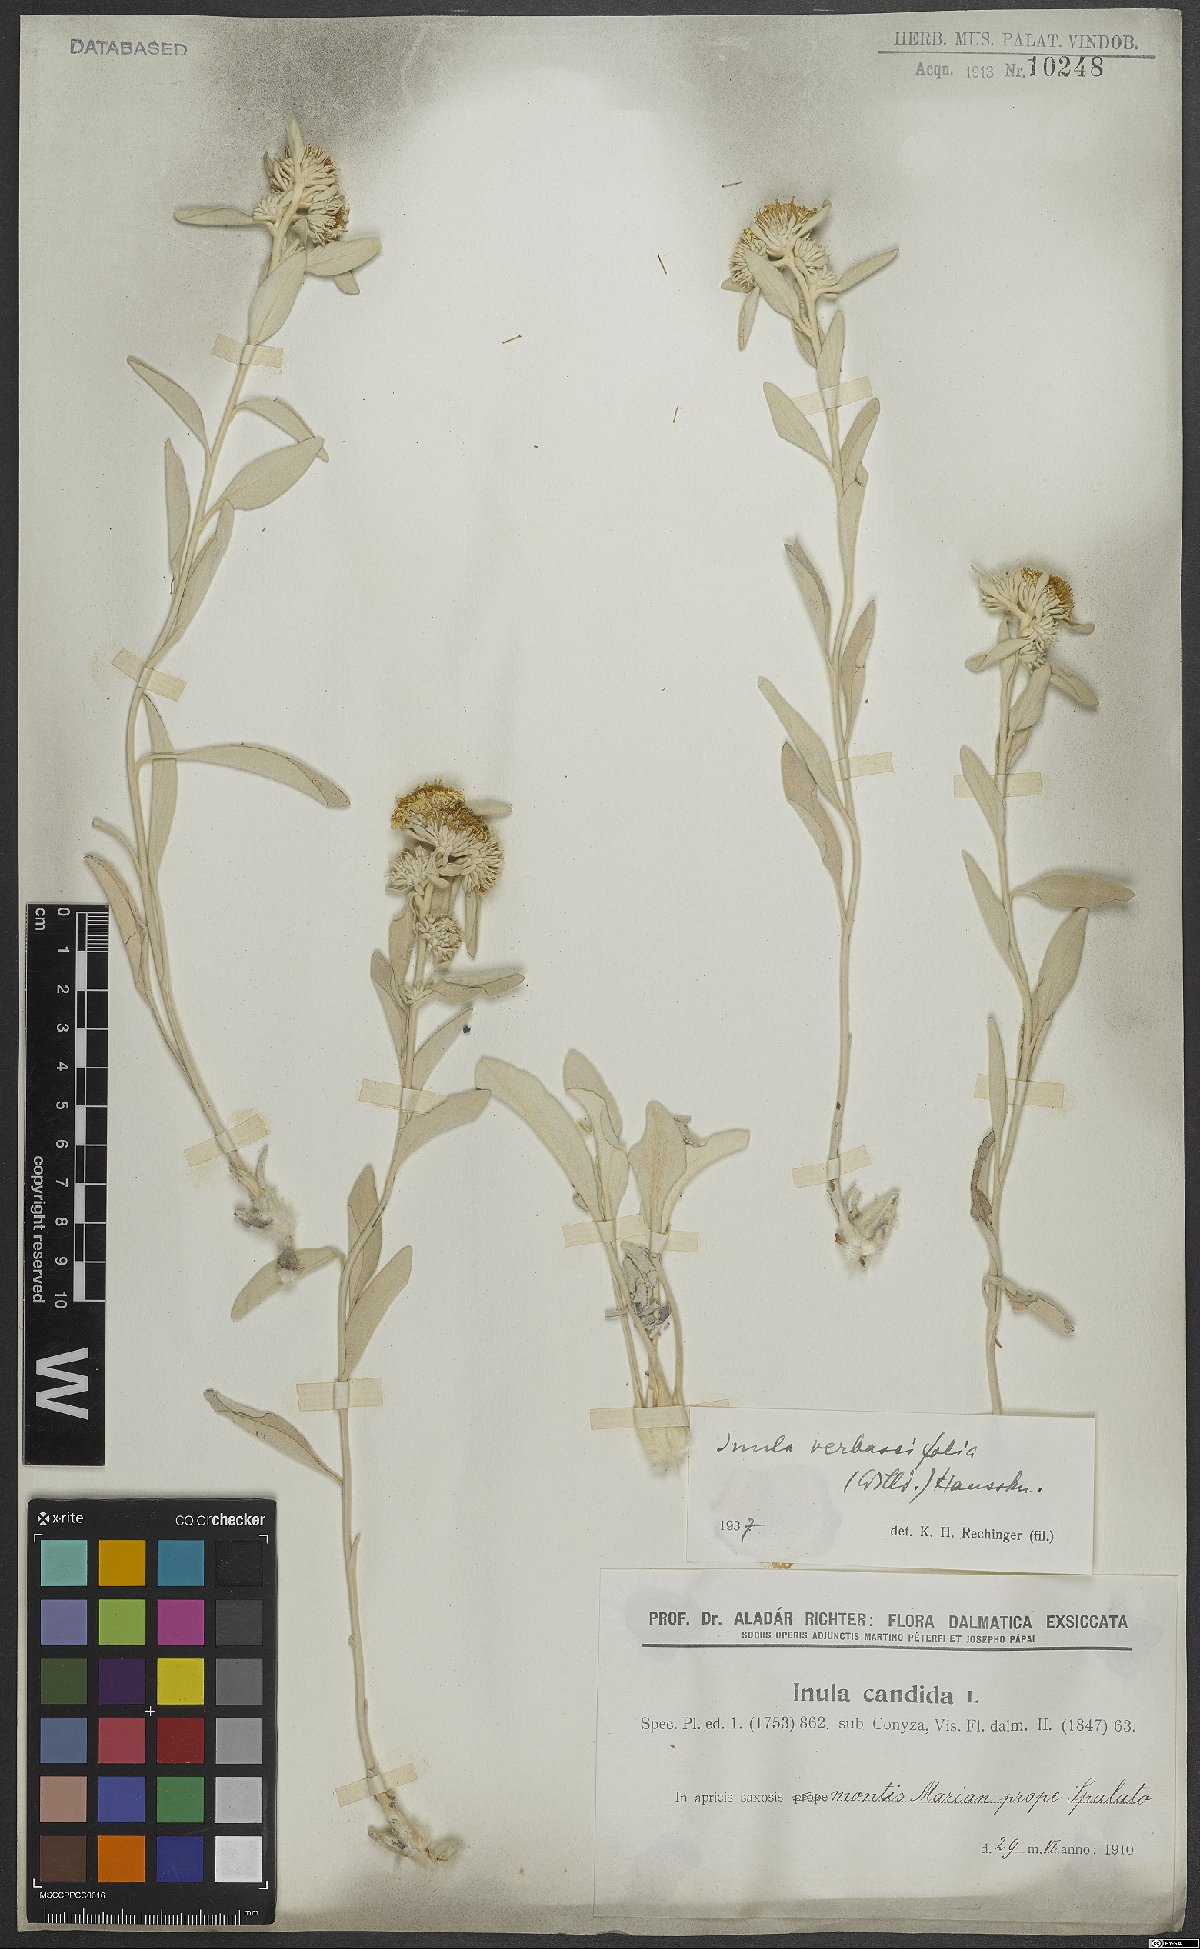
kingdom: Plantae
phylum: Tracheophyta
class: Magnoliopsida
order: Asterales
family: Asteraceae
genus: Pentanema
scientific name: Pentanema verbascifolium
